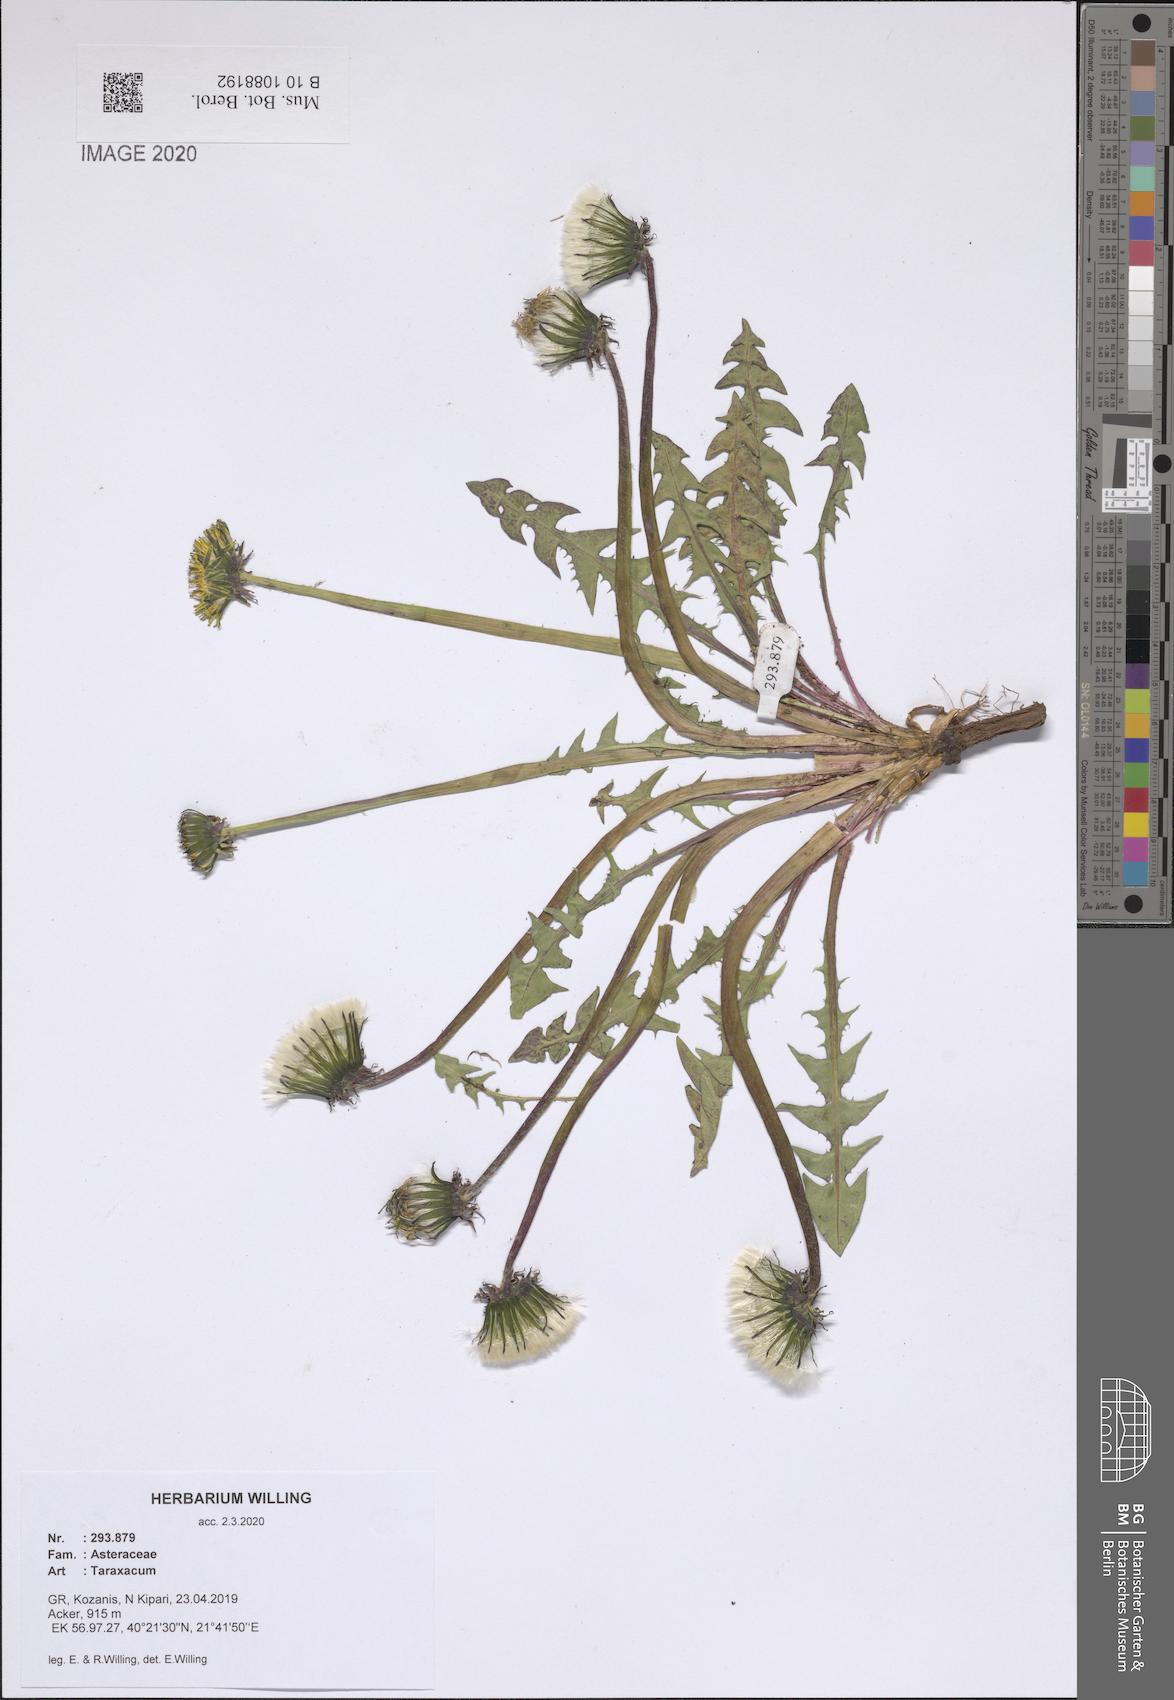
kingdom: Plantae
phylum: Tracheophyta
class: Magnoliopsida
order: Asterales
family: Asteraceae
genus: Taraxacum
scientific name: Taraxacum
